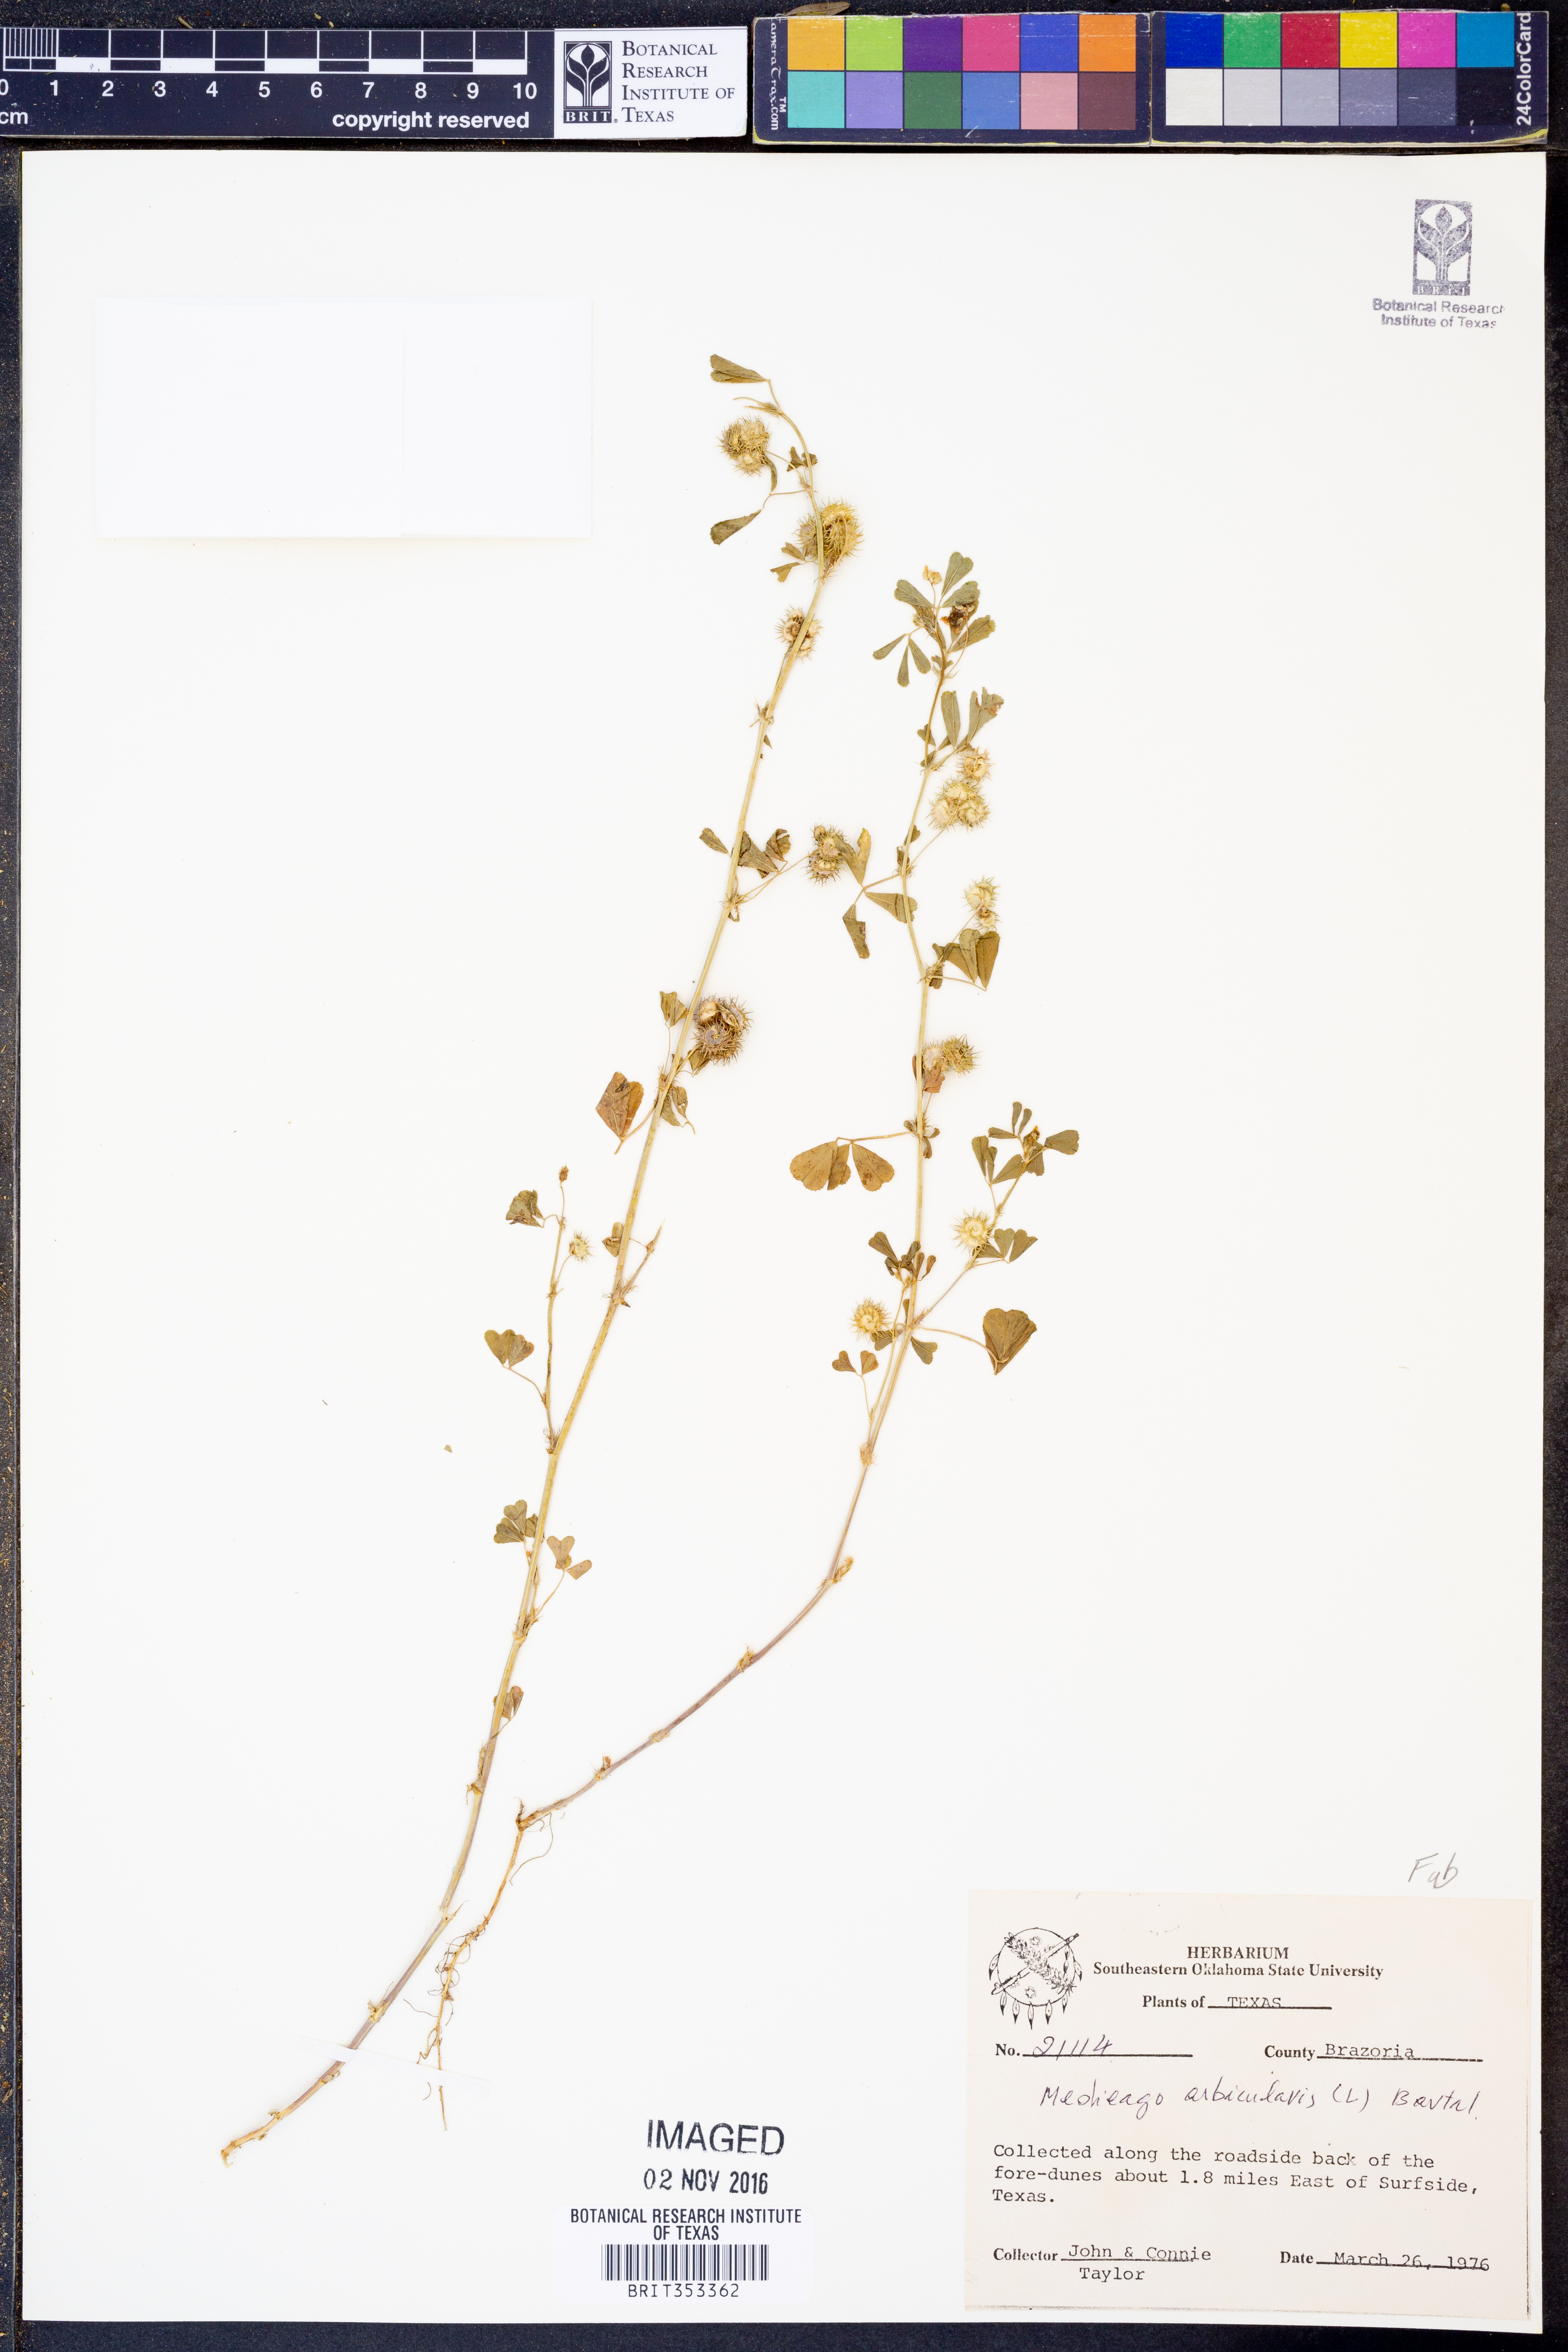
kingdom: Plantae
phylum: Tracheophyta
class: Magnoliopsida
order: Fabales
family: Fabaceae
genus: Medicago
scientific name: Medicago orbicularis
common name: Button medick
